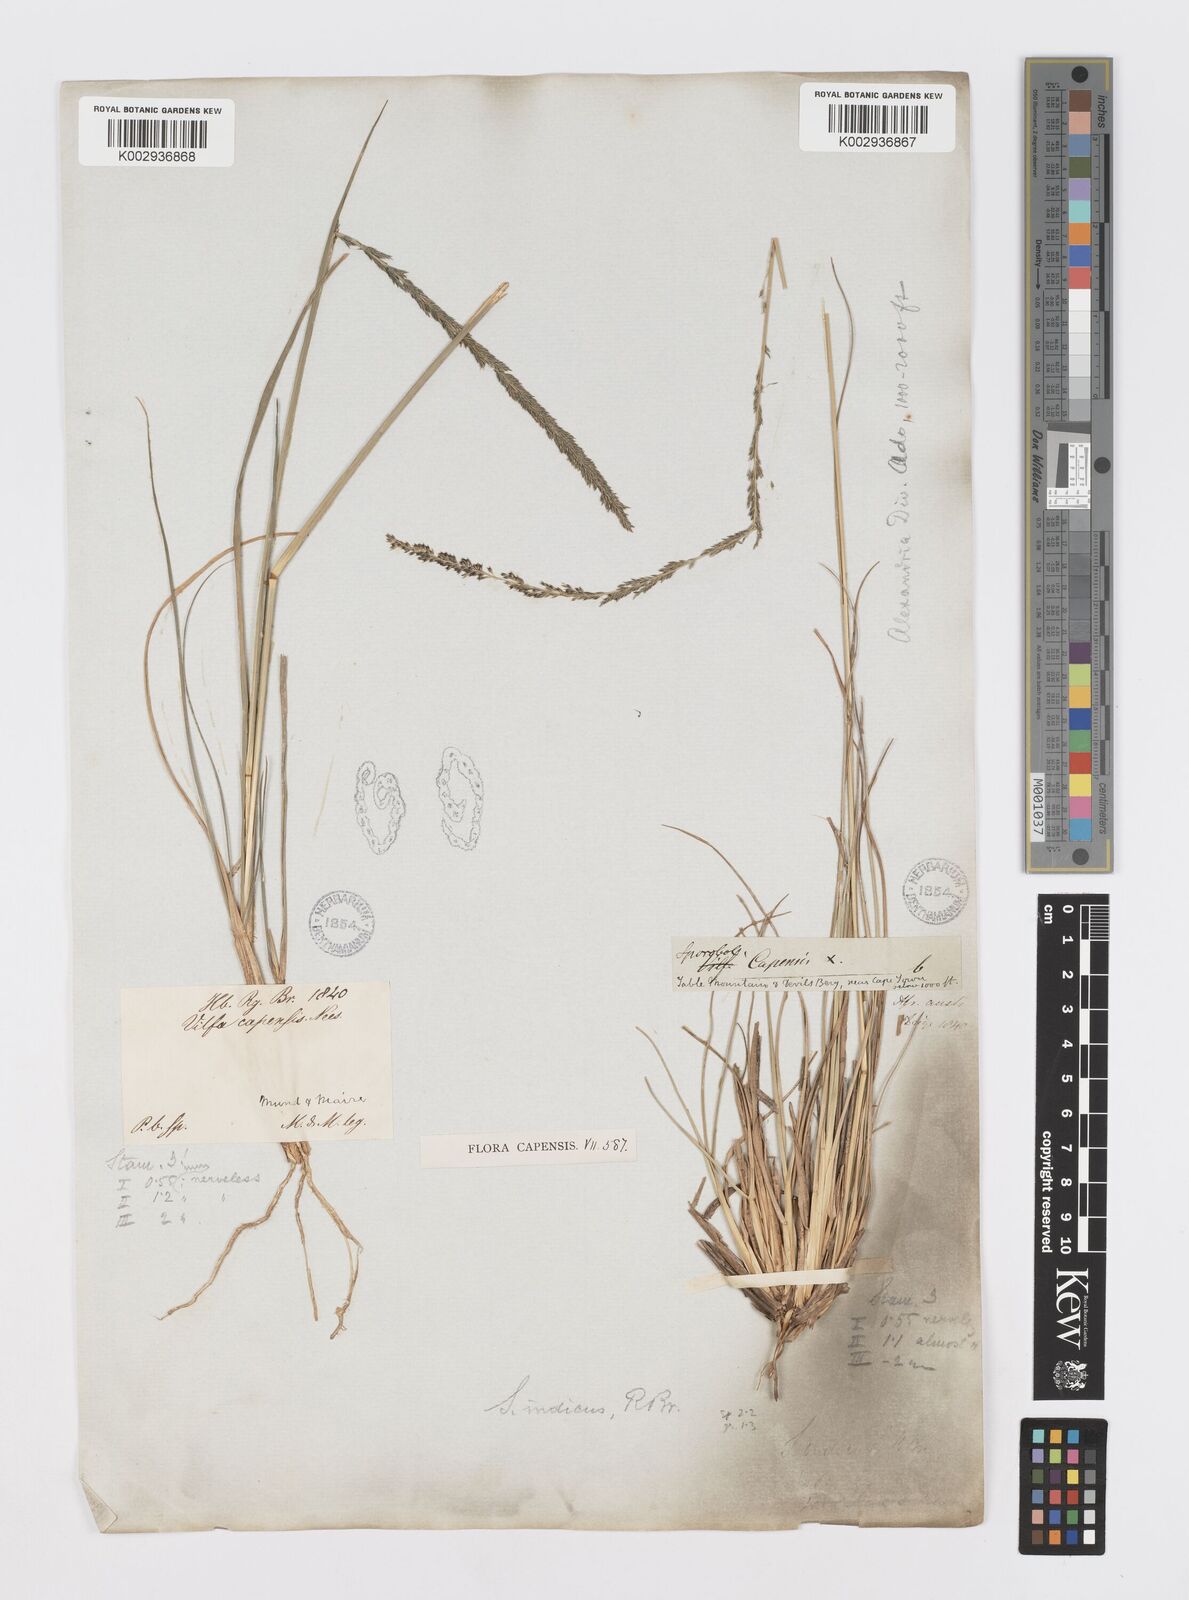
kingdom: Plantae
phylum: Tracheophyta
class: Liliopsida
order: Poales
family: Poaceae
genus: Sporobolus
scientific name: Sporobolus africanus
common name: African dropseed
